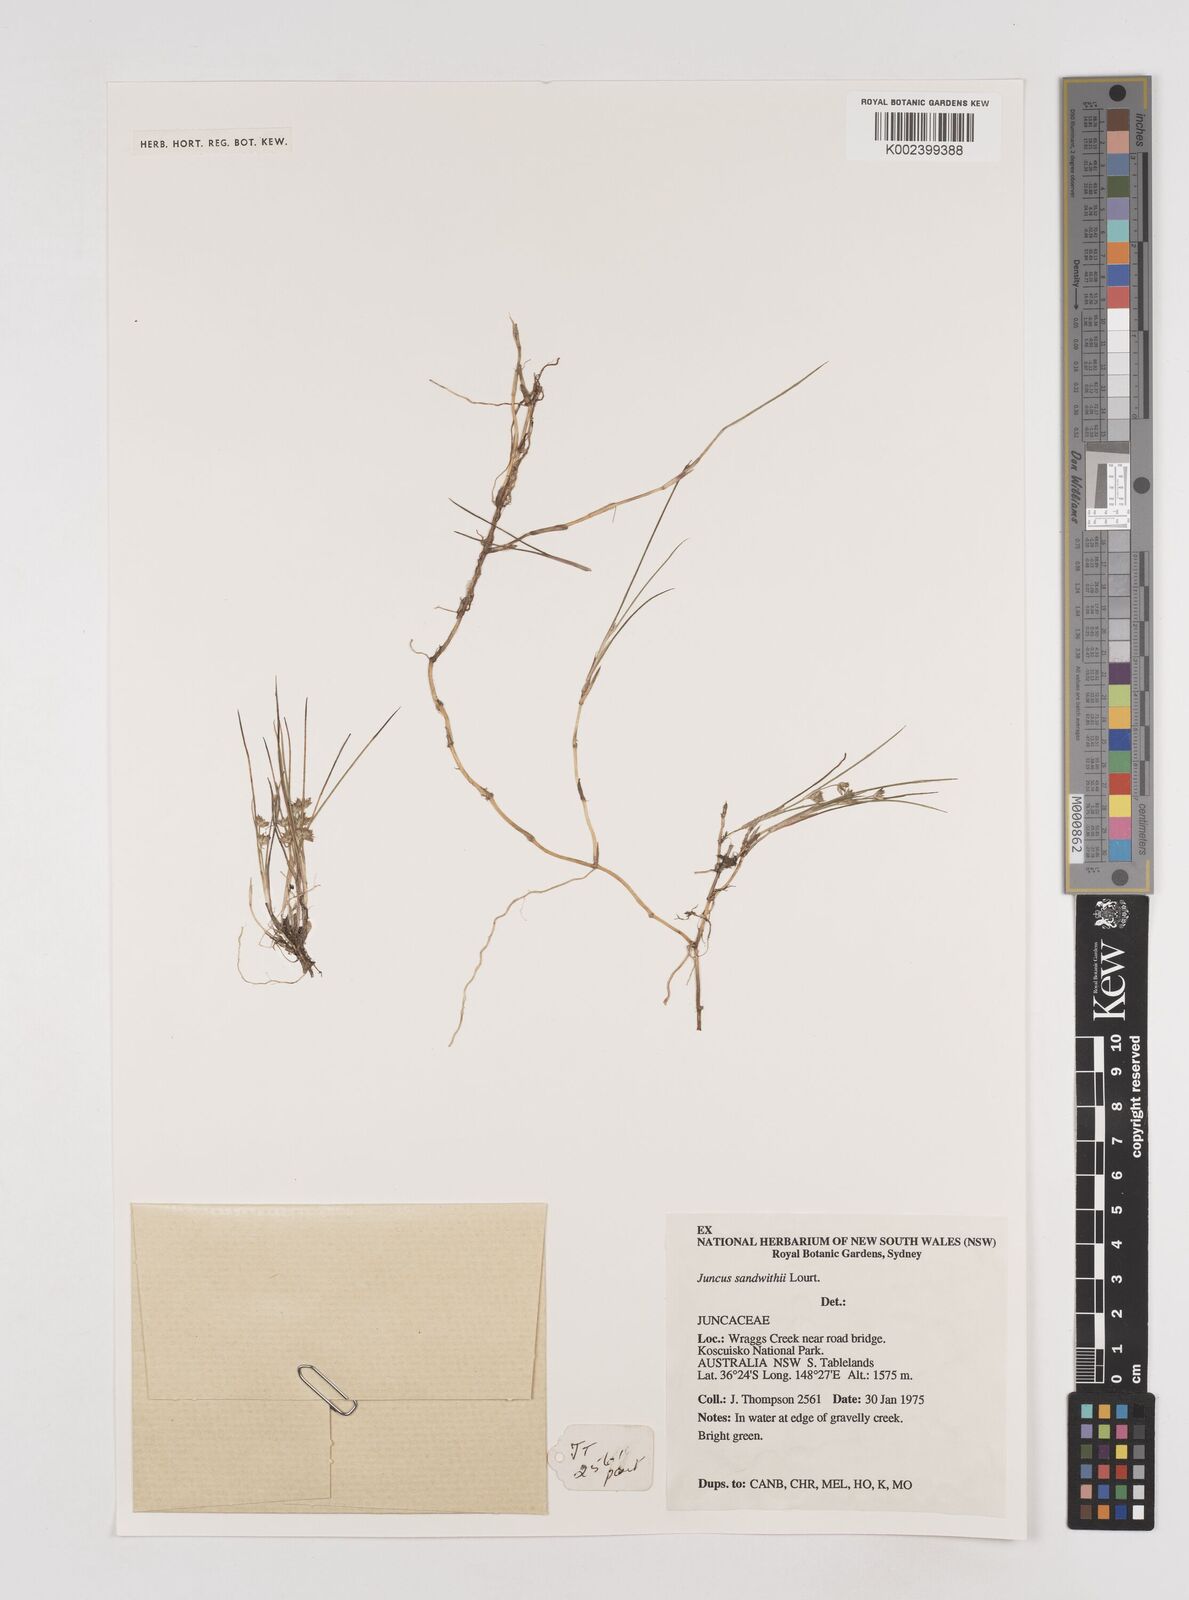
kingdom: Plantae
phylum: Tracheophyta
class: Liliopsida
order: Poales
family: Juncaceae
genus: Juncus
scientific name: Juncus sandwithii
